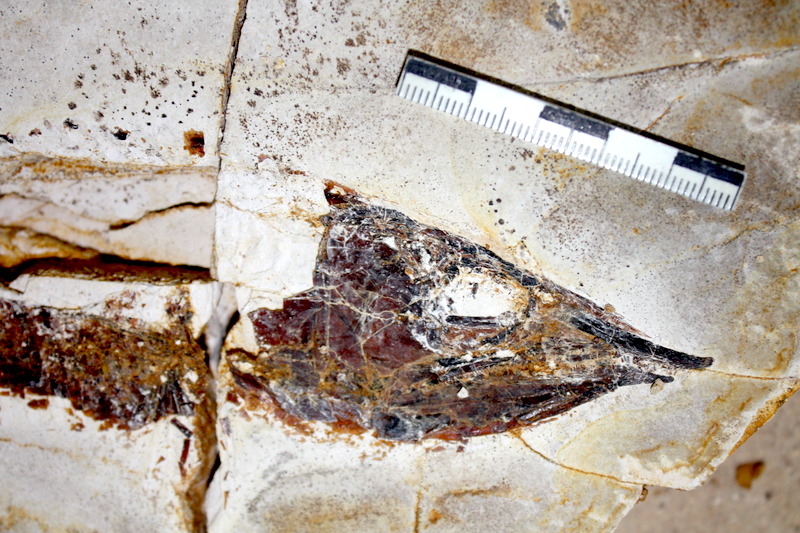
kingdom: Animalia
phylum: Chordata
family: Aspidorhynchidae
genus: Aspidorhynchus
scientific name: Aspidorhynchus sanzenbacheri
